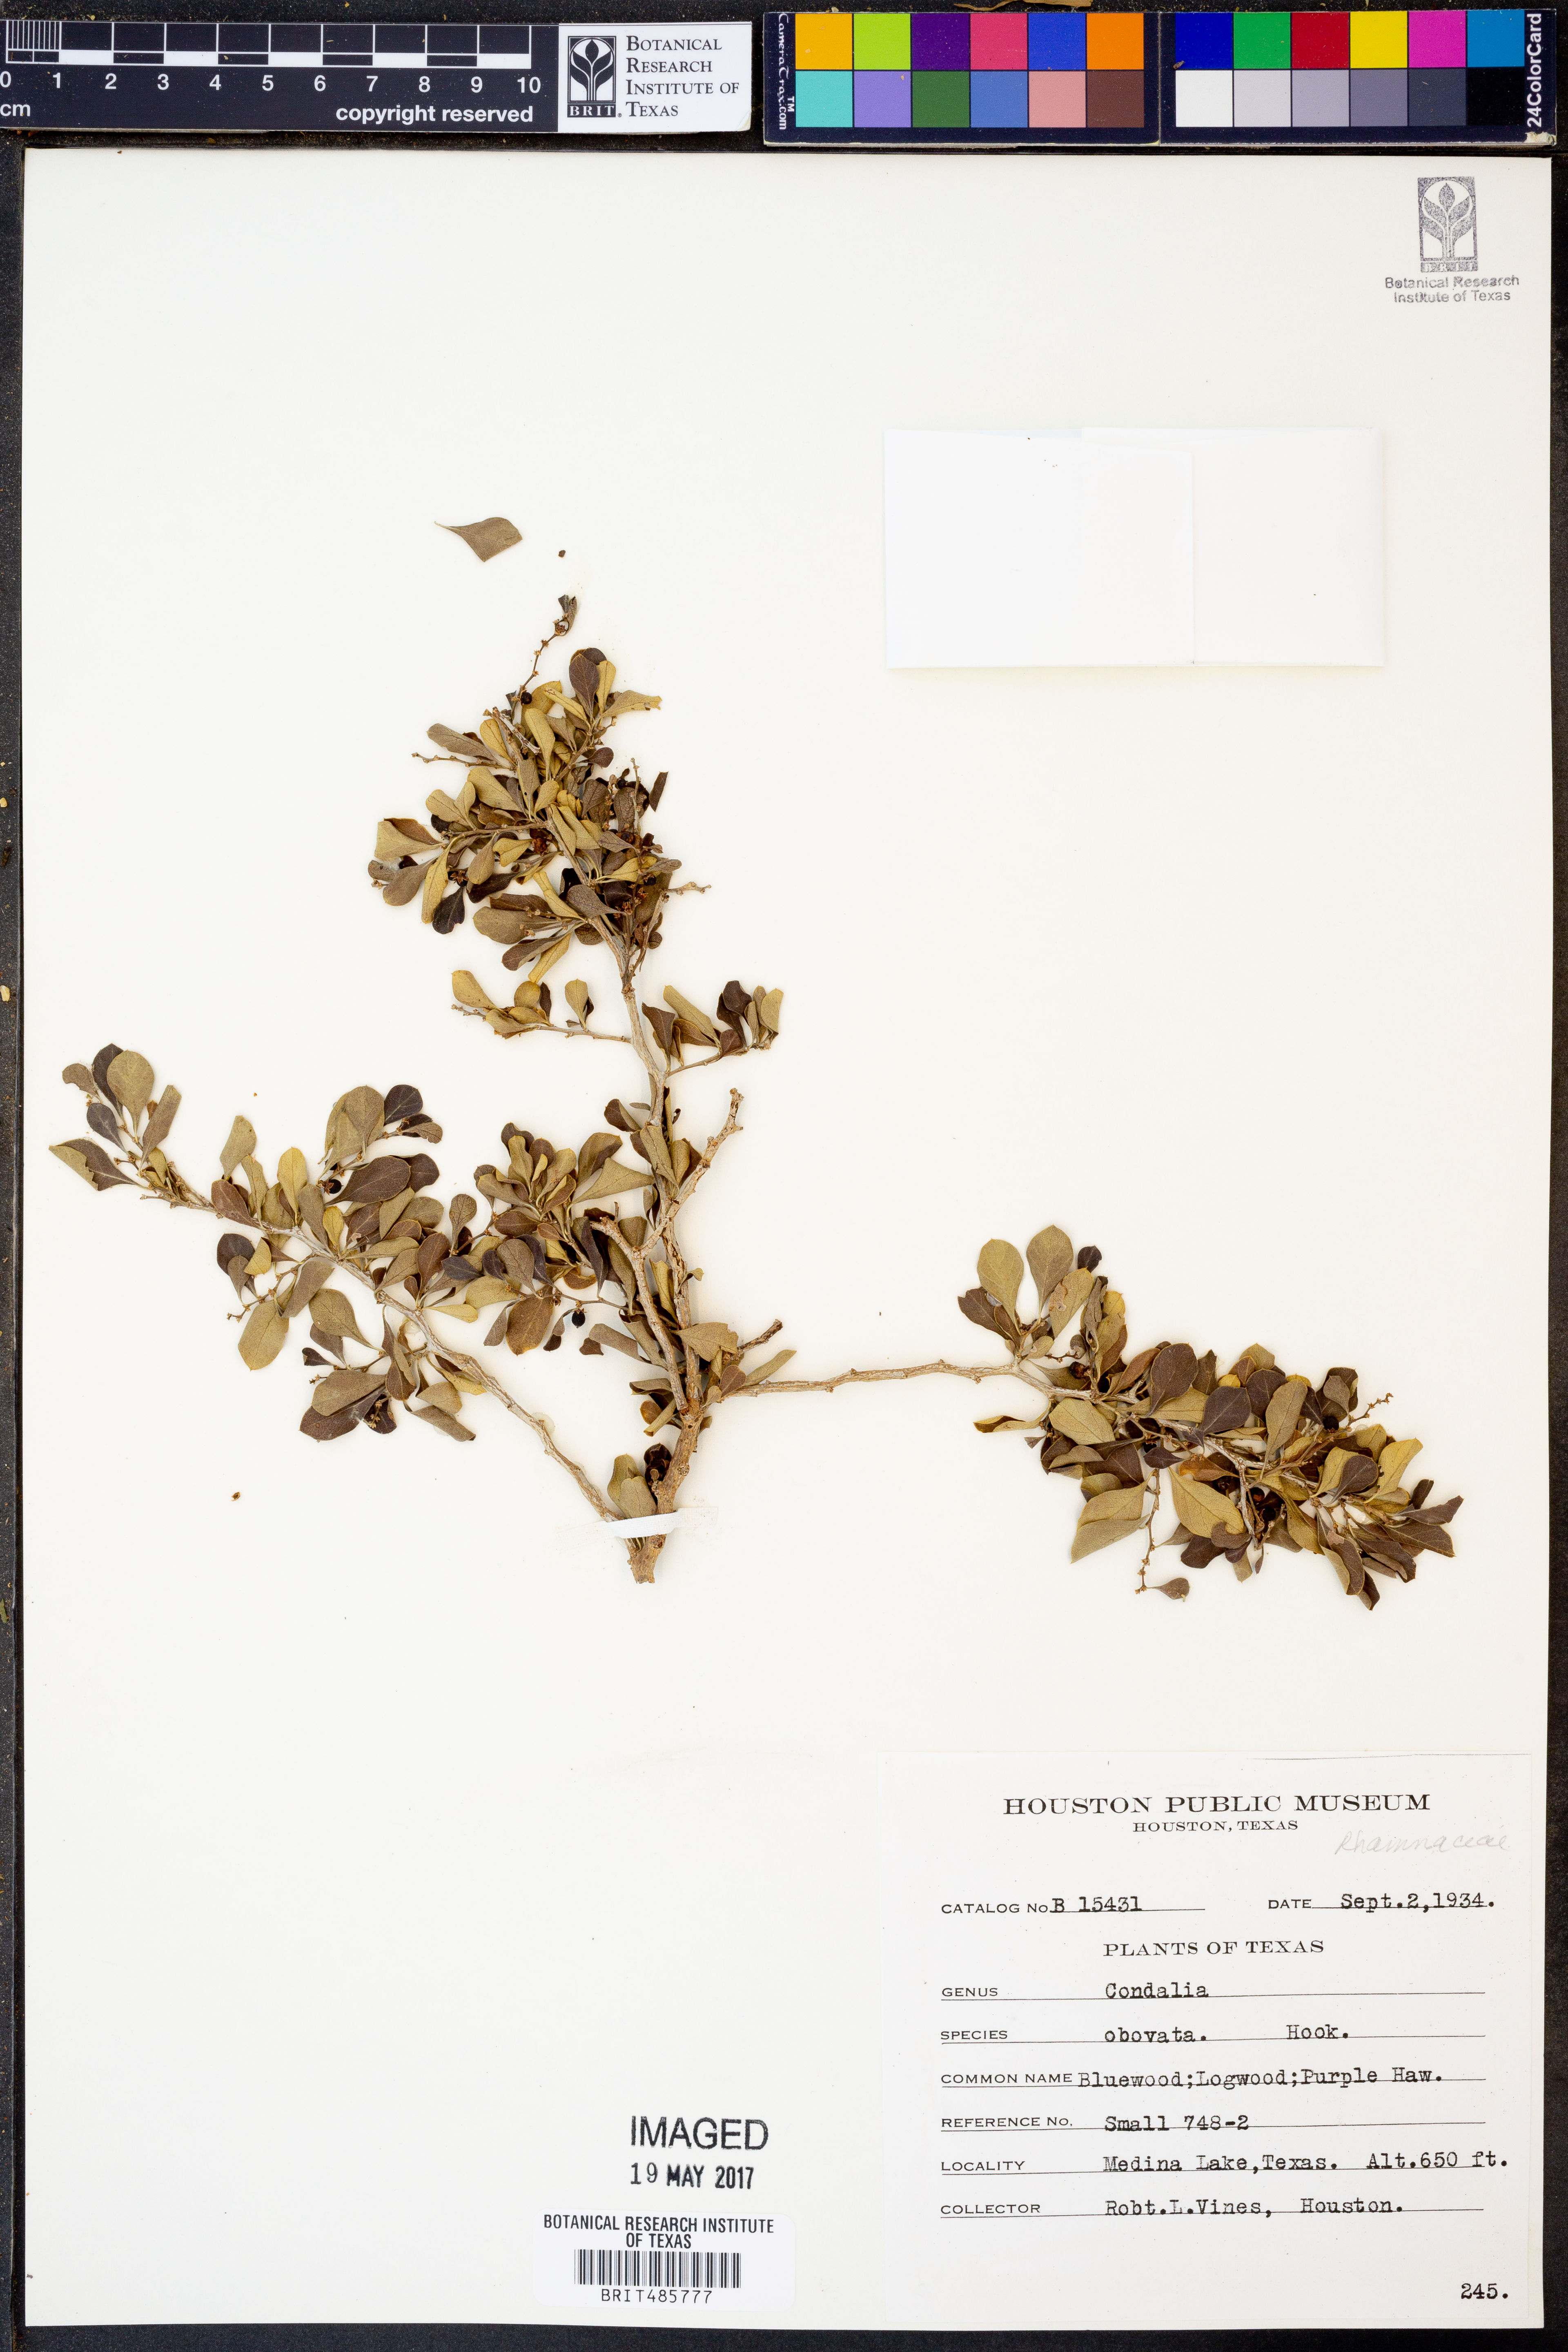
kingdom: Plantae
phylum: Tracheophyta
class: Magnoliopsida
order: Rosales
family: Rhamnaceae
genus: Condalia
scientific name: Condalia hookeri
